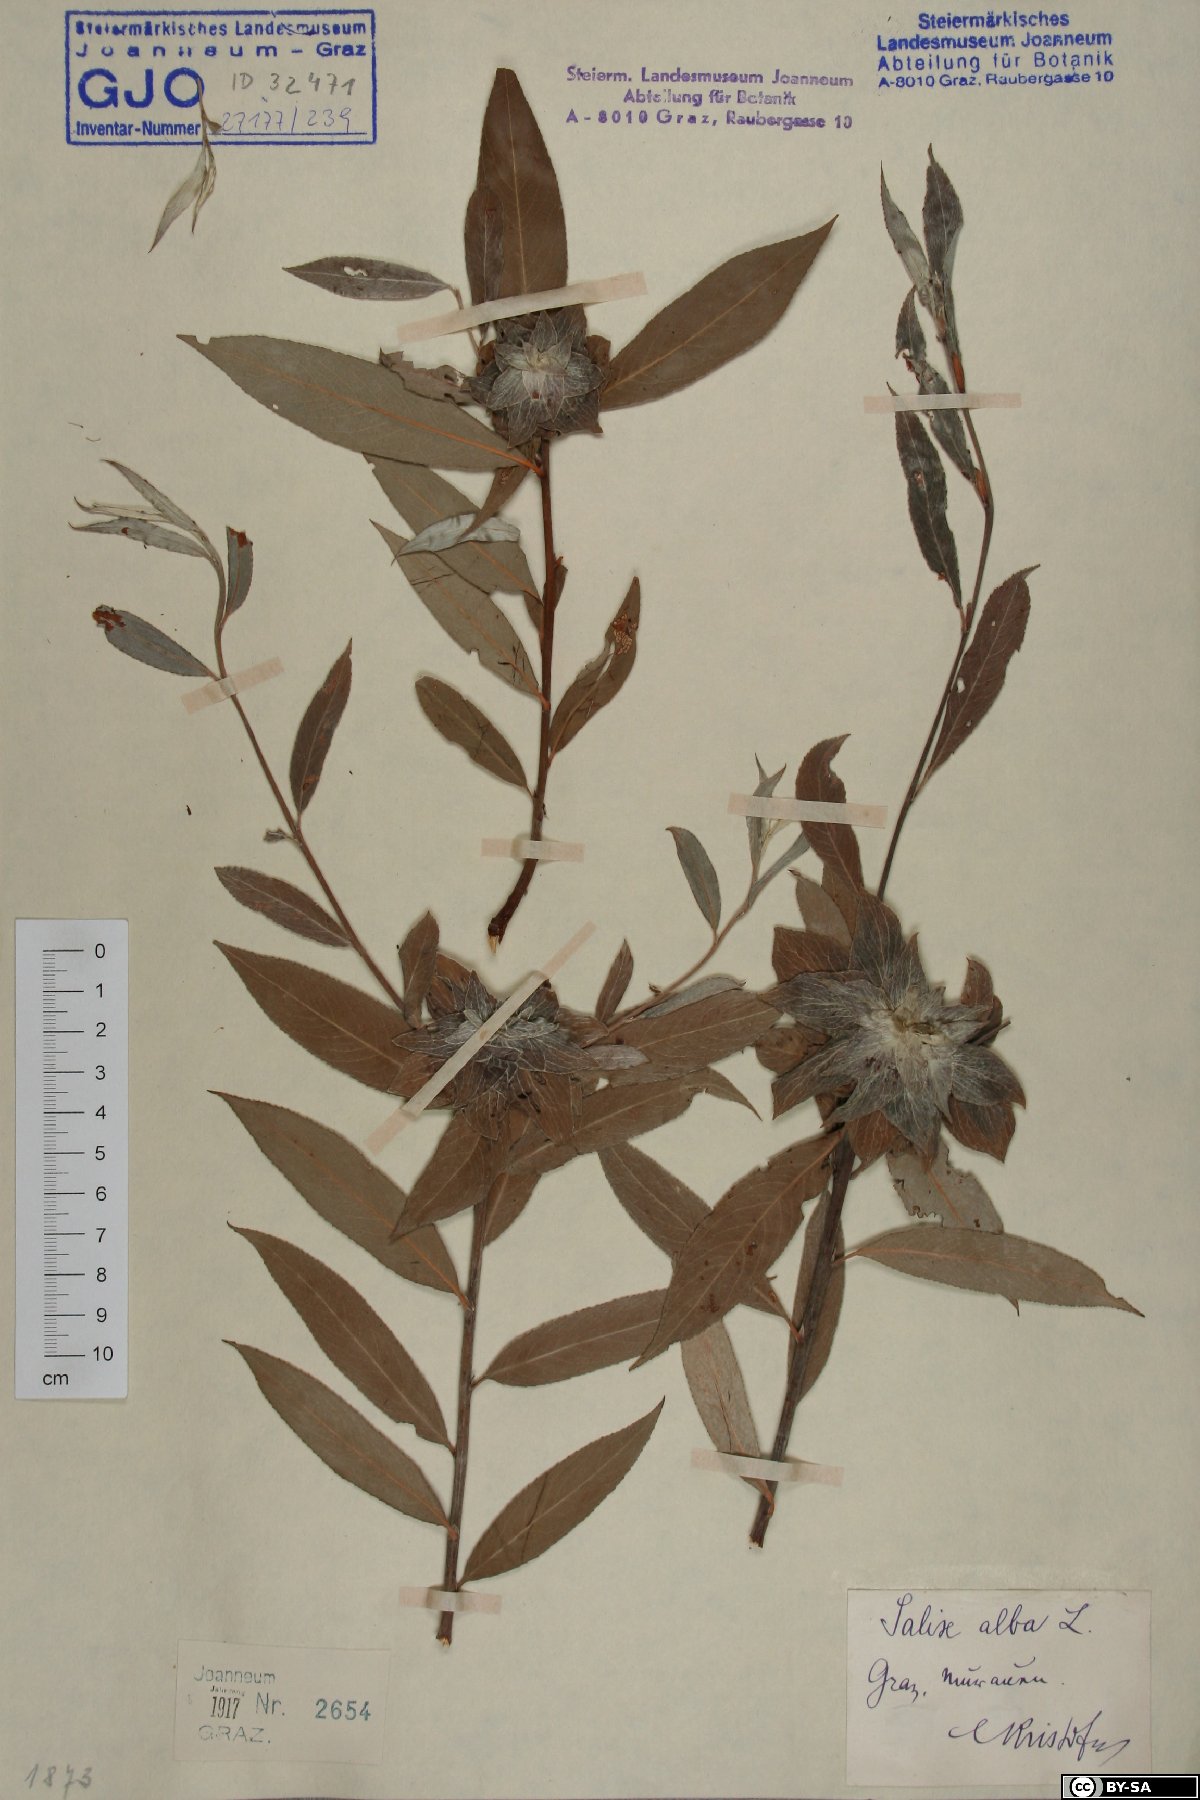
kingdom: Plantae
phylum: Tracheophyta
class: Magnoliopsida
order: Malpighiales
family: Salicaceae
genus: Salix
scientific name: Salix alba
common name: White willow
